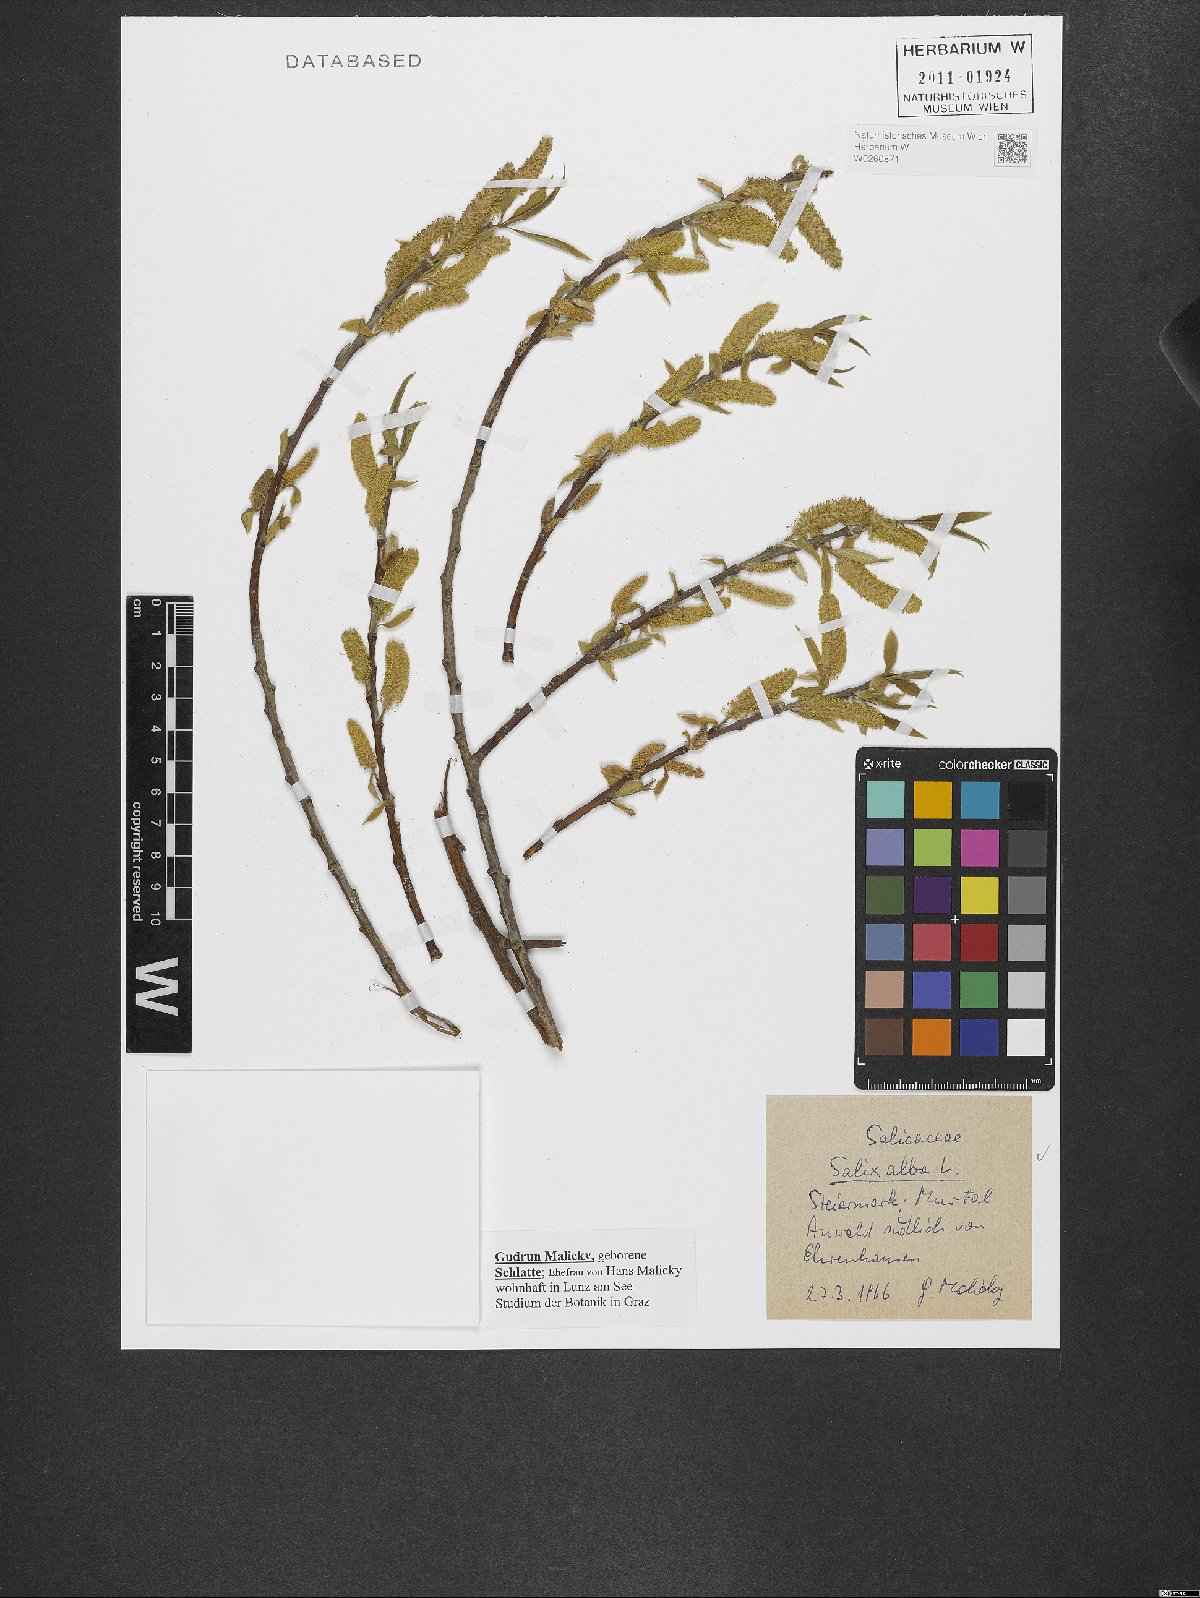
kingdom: Plantae
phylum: Tracheophyta
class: Magnoliopsida
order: Malpighiales
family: Salicaceae
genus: Salix
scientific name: Salix alba
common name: White willow
